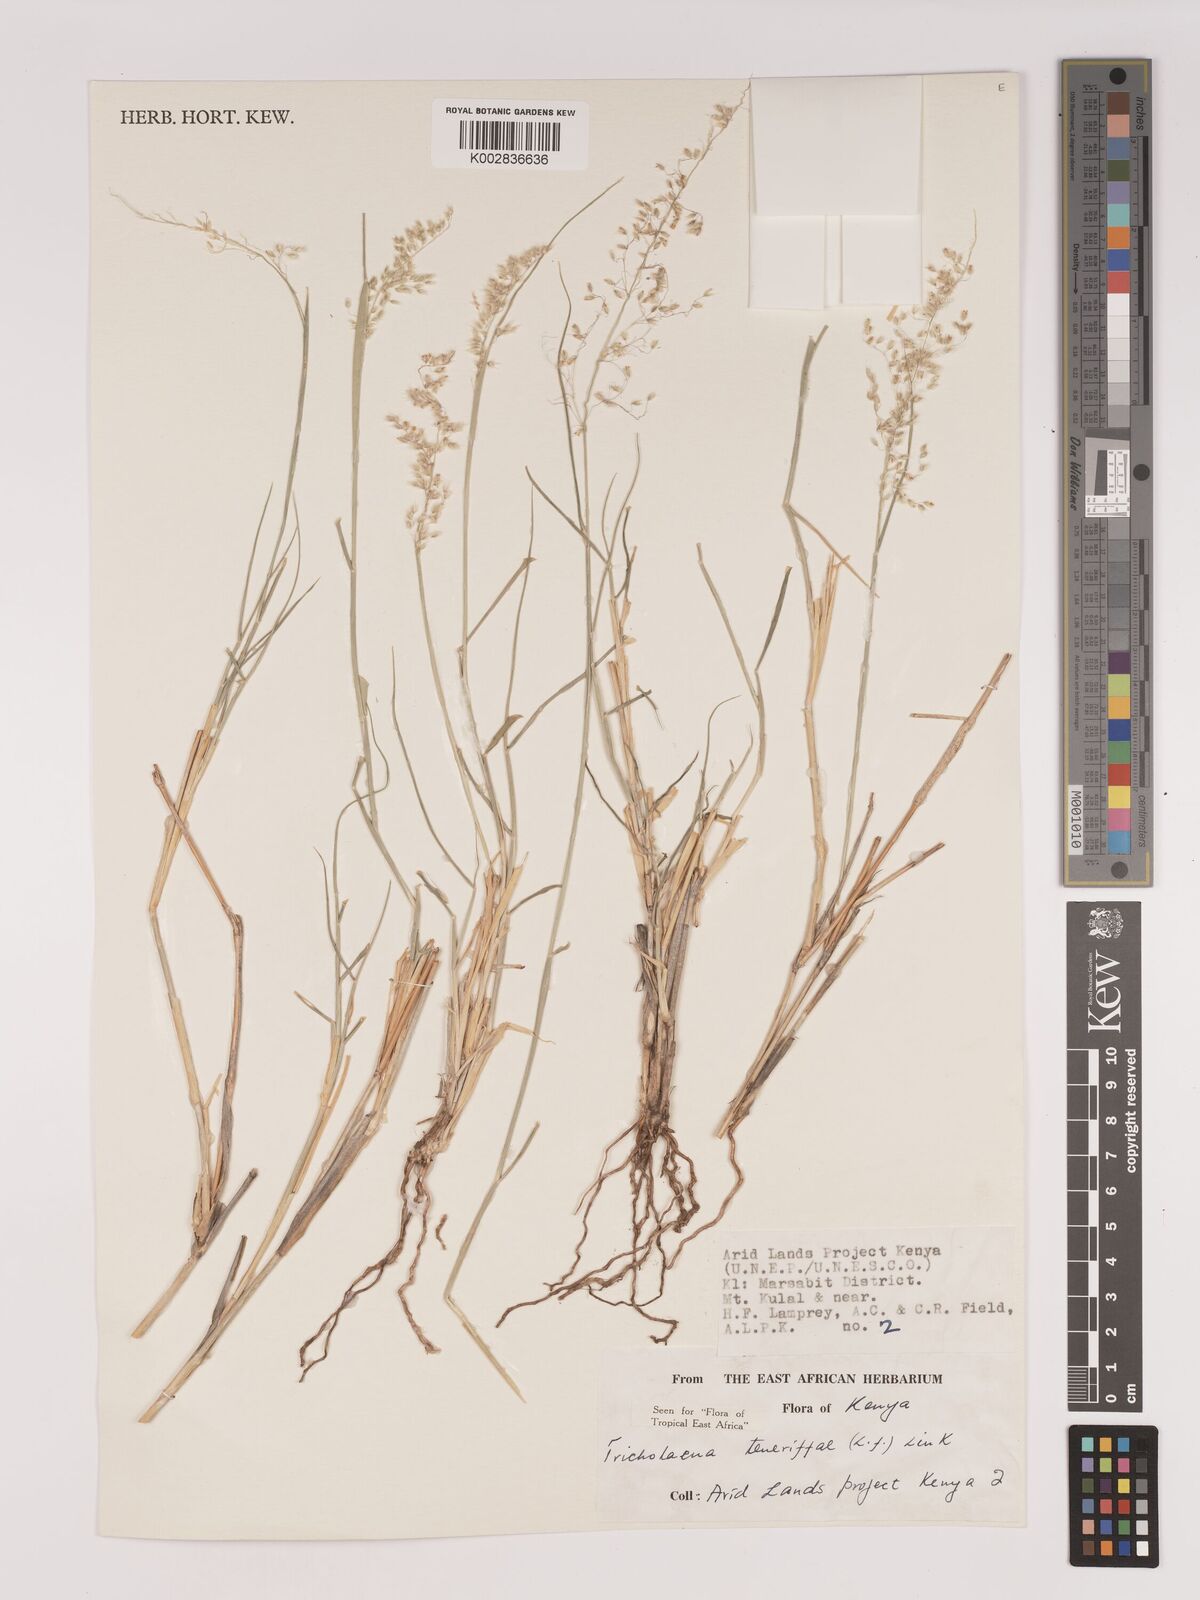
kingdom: Plantae
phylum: Tracheophyta
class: Liliopsida
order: Poales
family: Poaceae
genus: Tricholaena
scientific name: Tricholaena teneriffae
